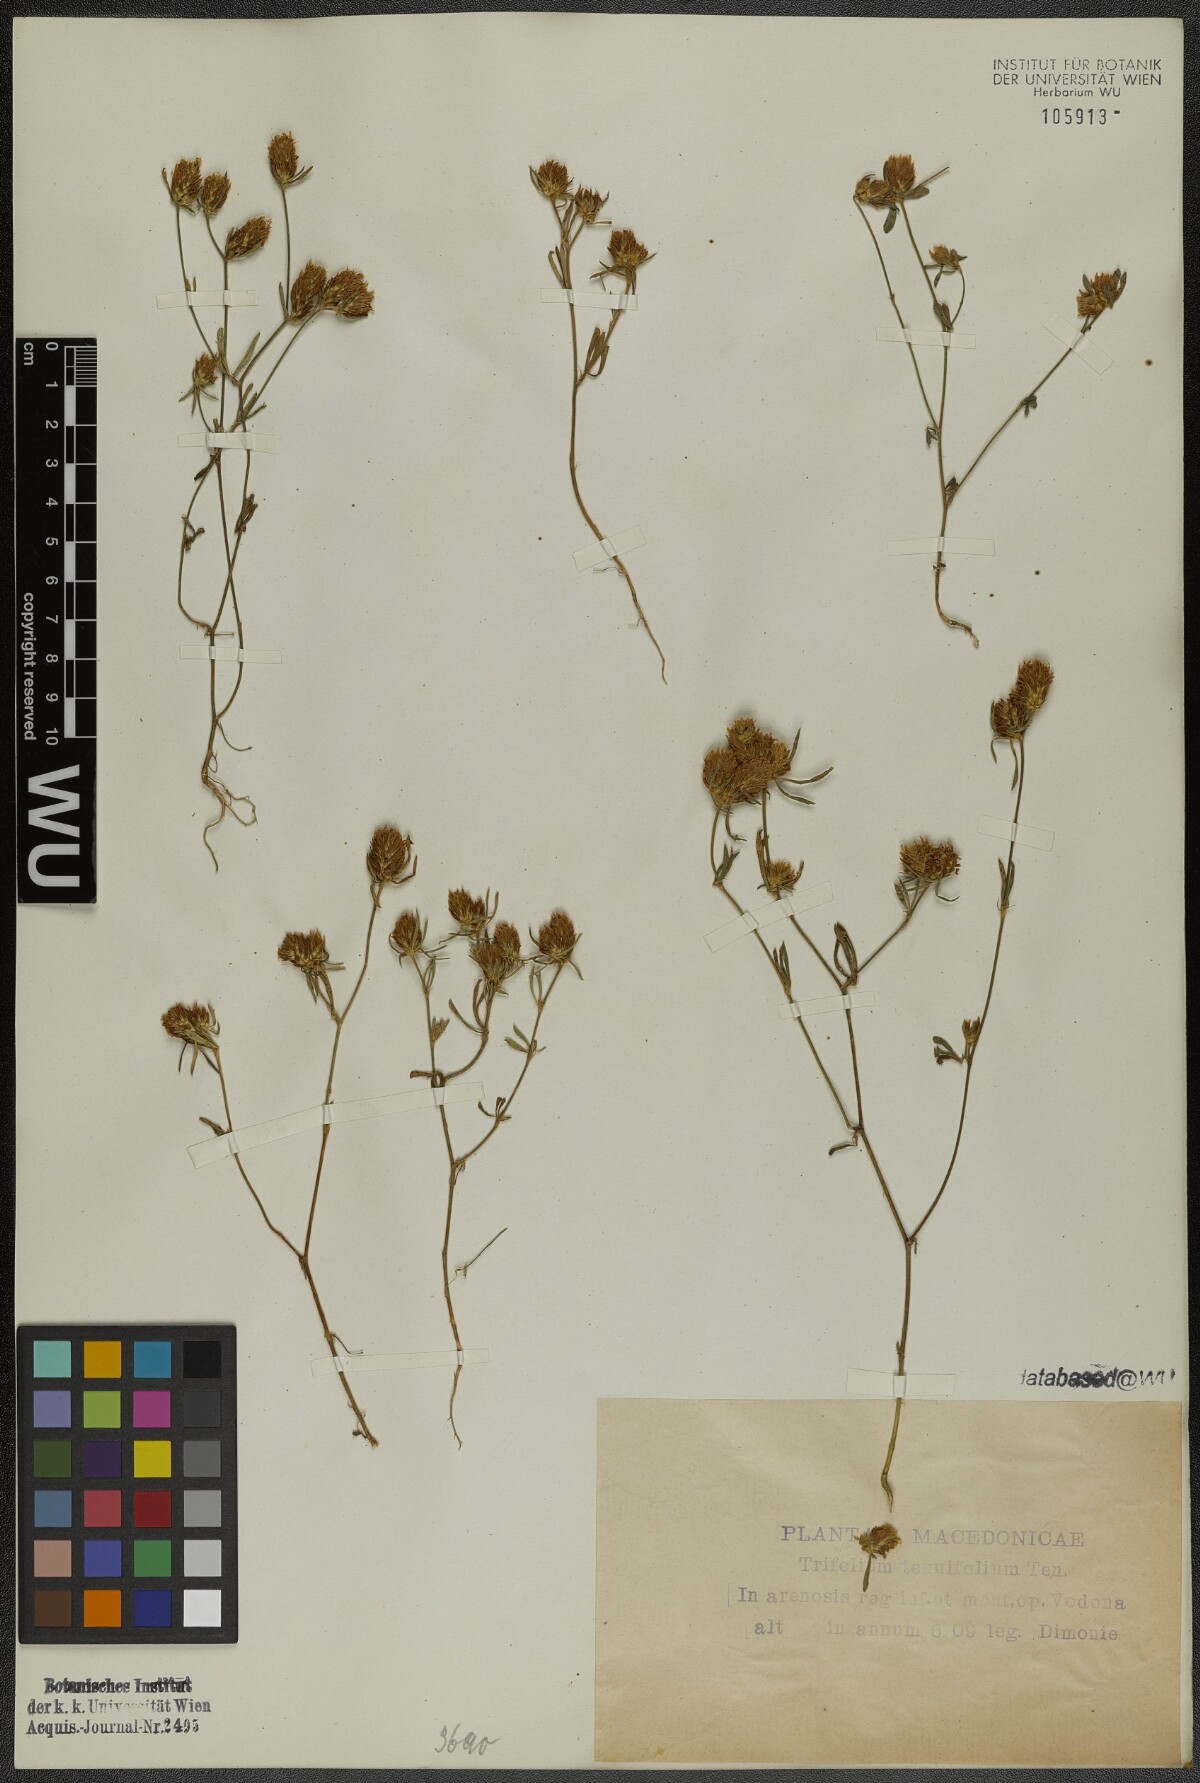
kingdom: Plantae
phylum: Tracheophyta
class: Magnoliopsida
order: Fabales
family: Fabaceae
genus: Trifolium
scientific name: Trifolium tenuifolium
